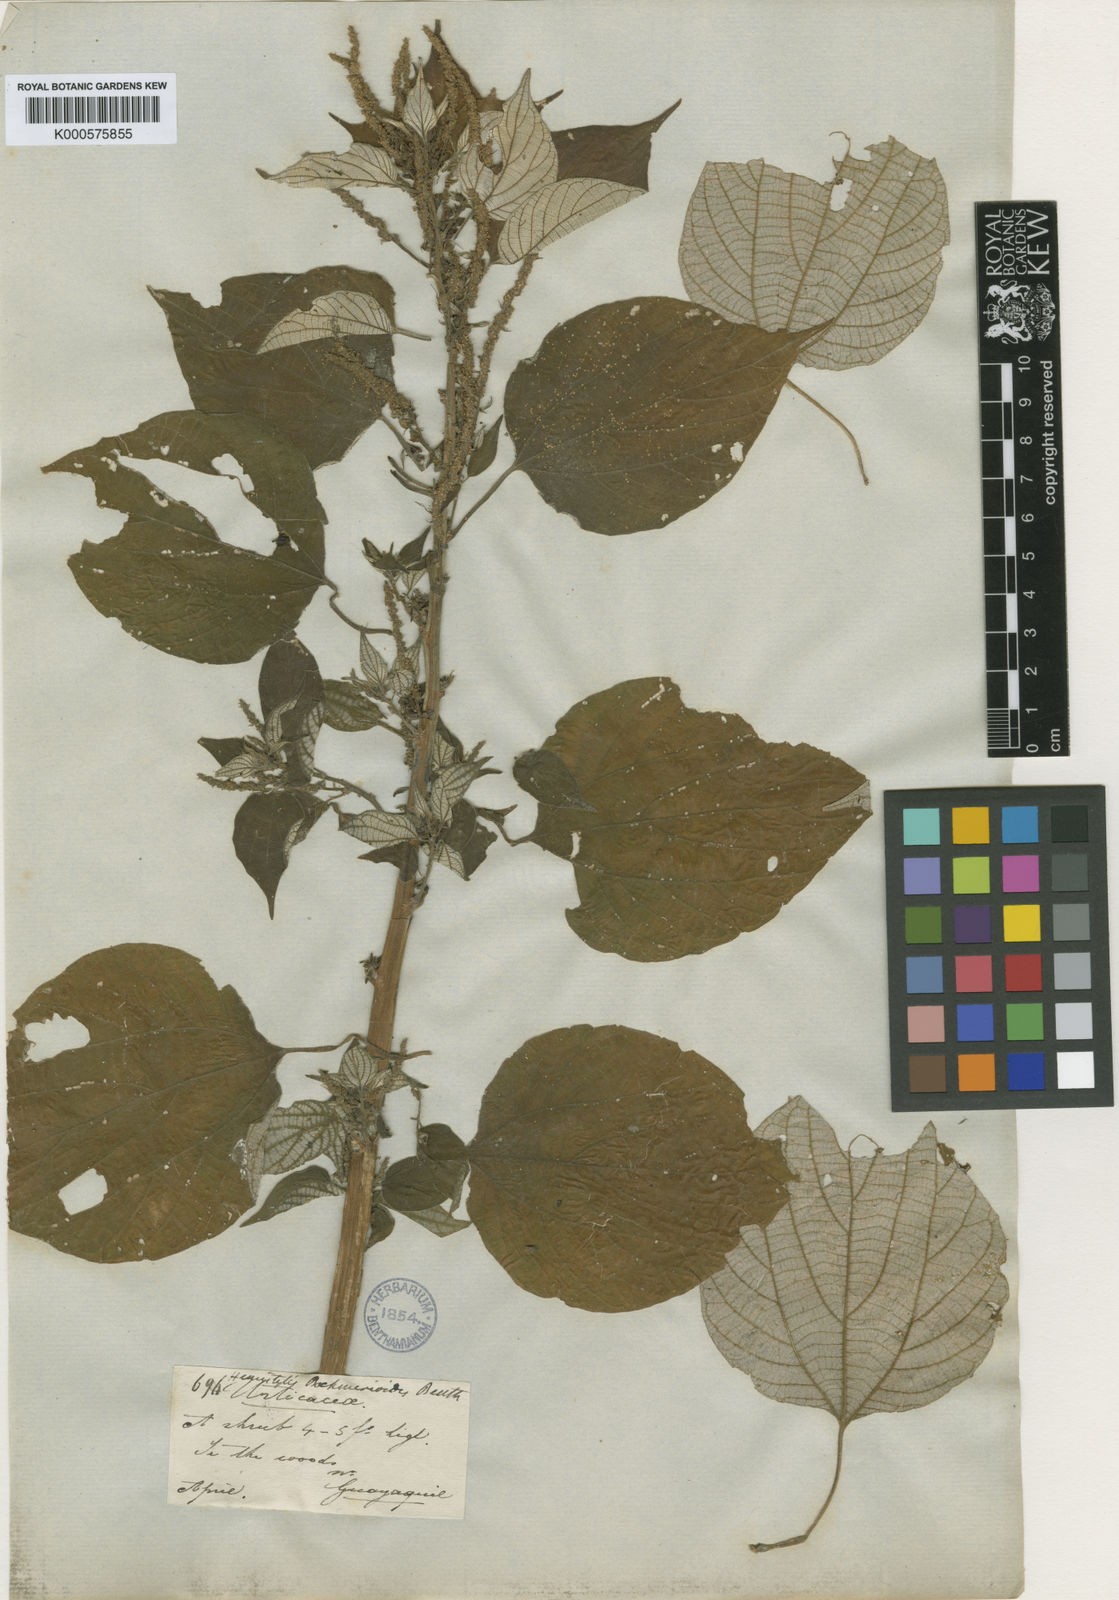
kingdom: Plantae
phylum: Tracheophyta
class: Magnoliopsida
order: Rosales
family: Urticaceae
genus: Hemistylus
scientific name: Hemistylus boehmerioides
